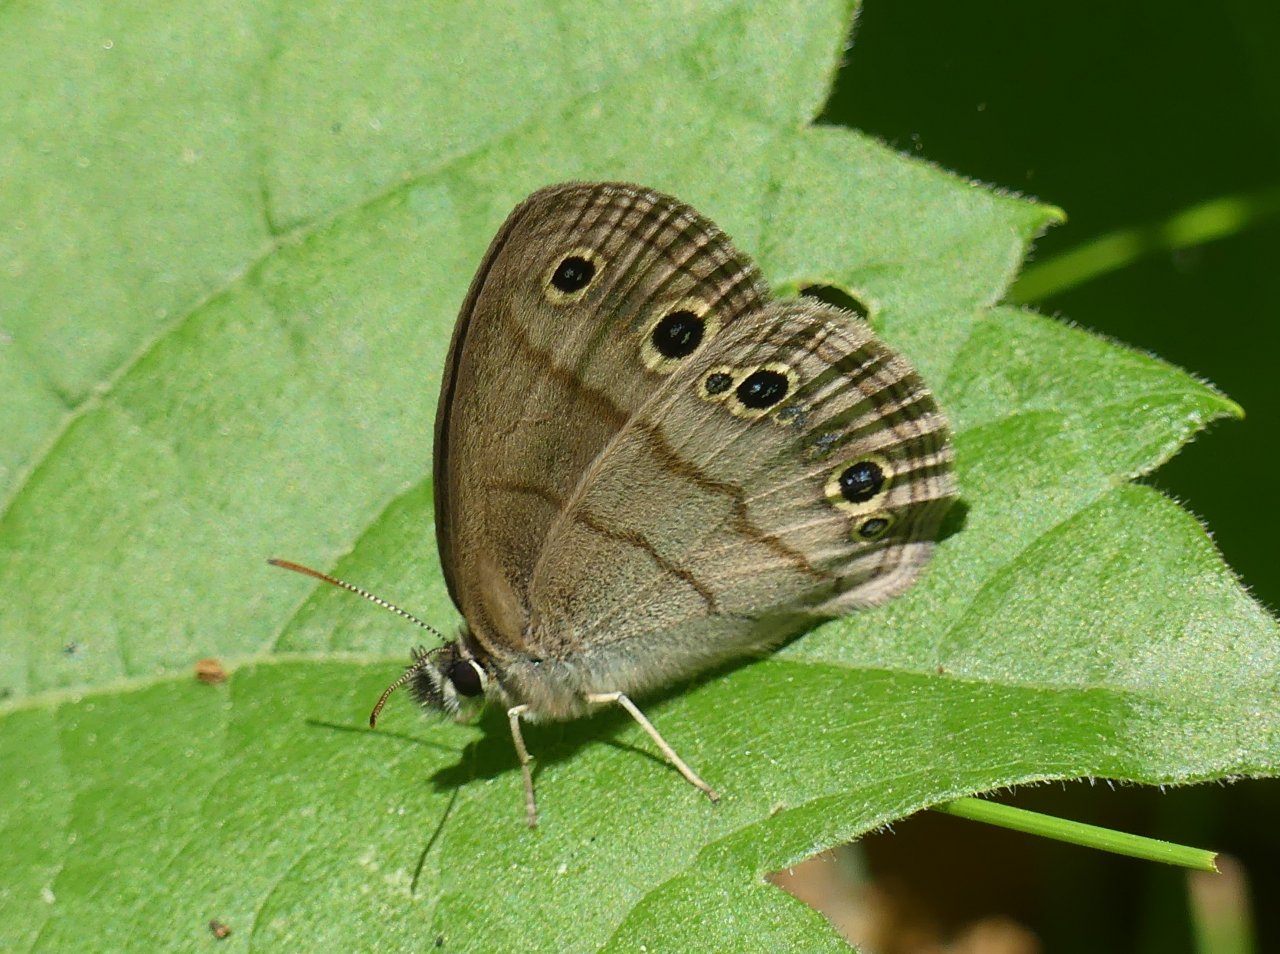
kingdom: Animalia
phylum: Arthropoda
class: Insecta
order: Lepidoptera
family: Nymphalidae
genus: Euptychia
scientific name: Euptychia cymela
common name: Little Wood Satyr
